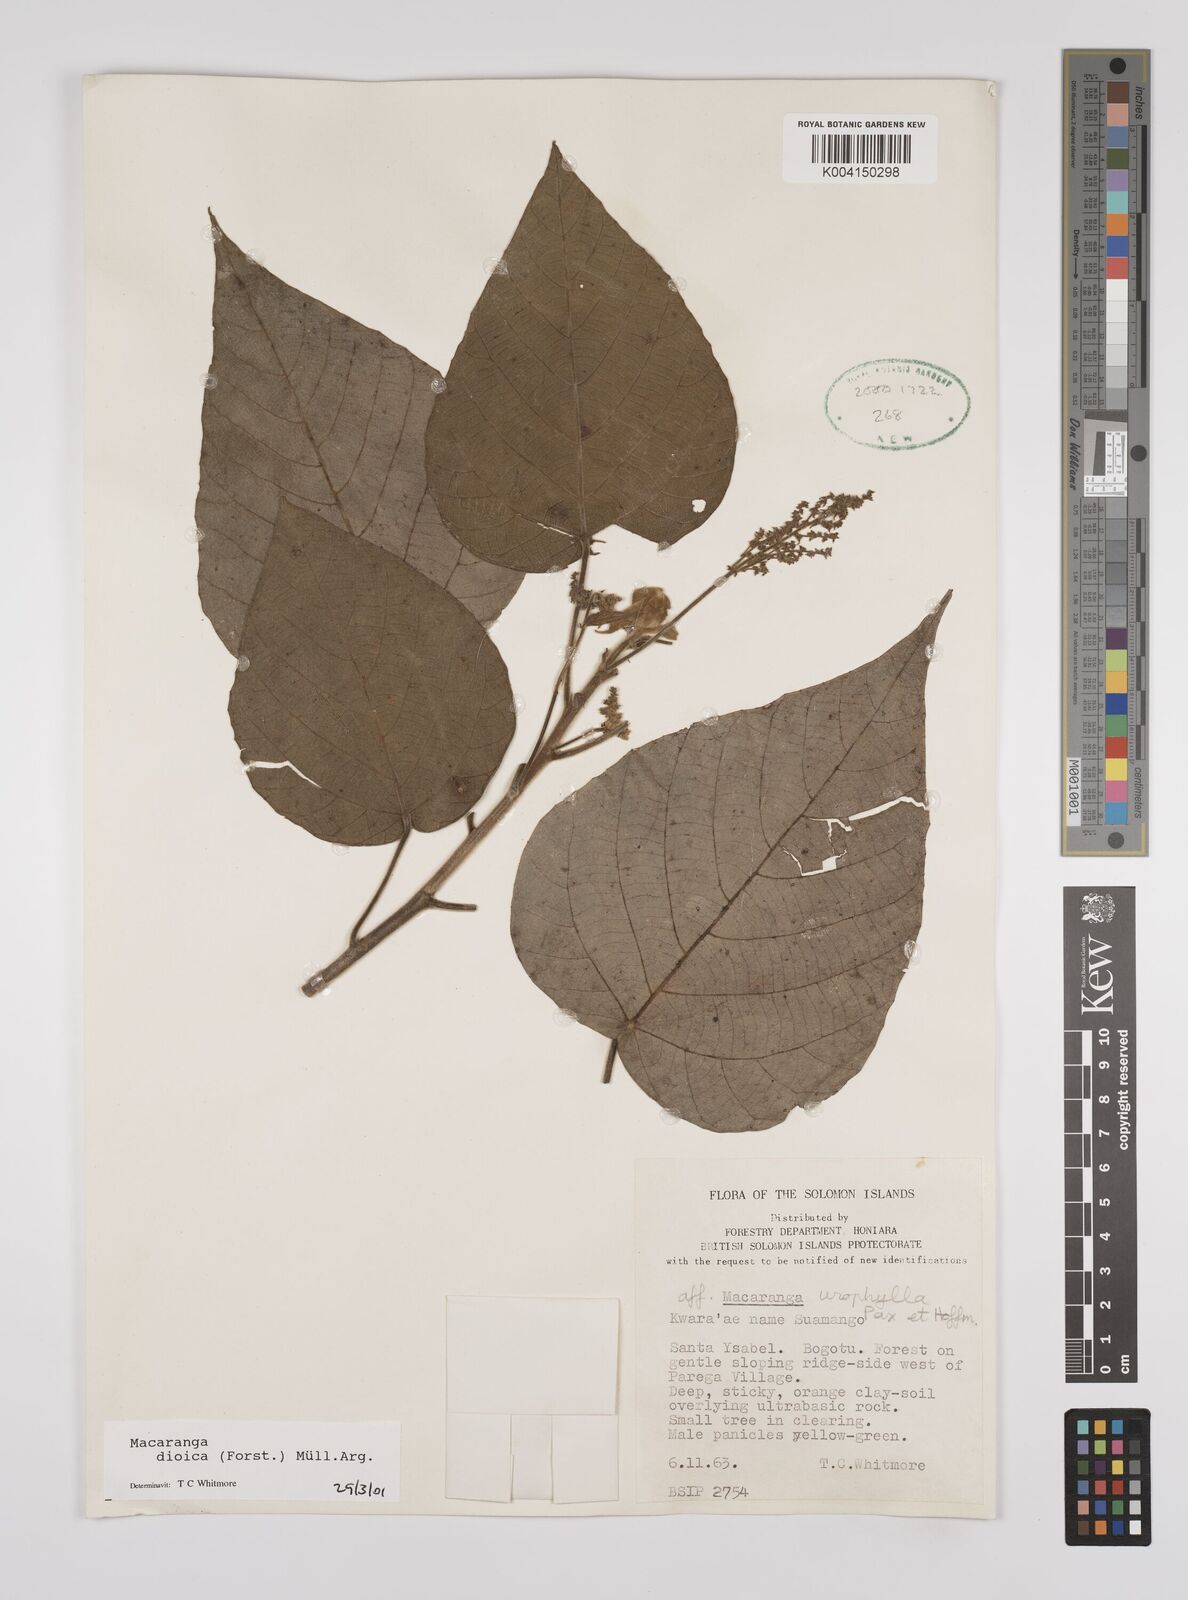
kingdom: Plantae
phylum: Tracheophyta
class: Magnoliopsida
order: Malpighiales
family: Euphorbiaceae
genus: Macaranga
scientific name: Macaranga dioica
